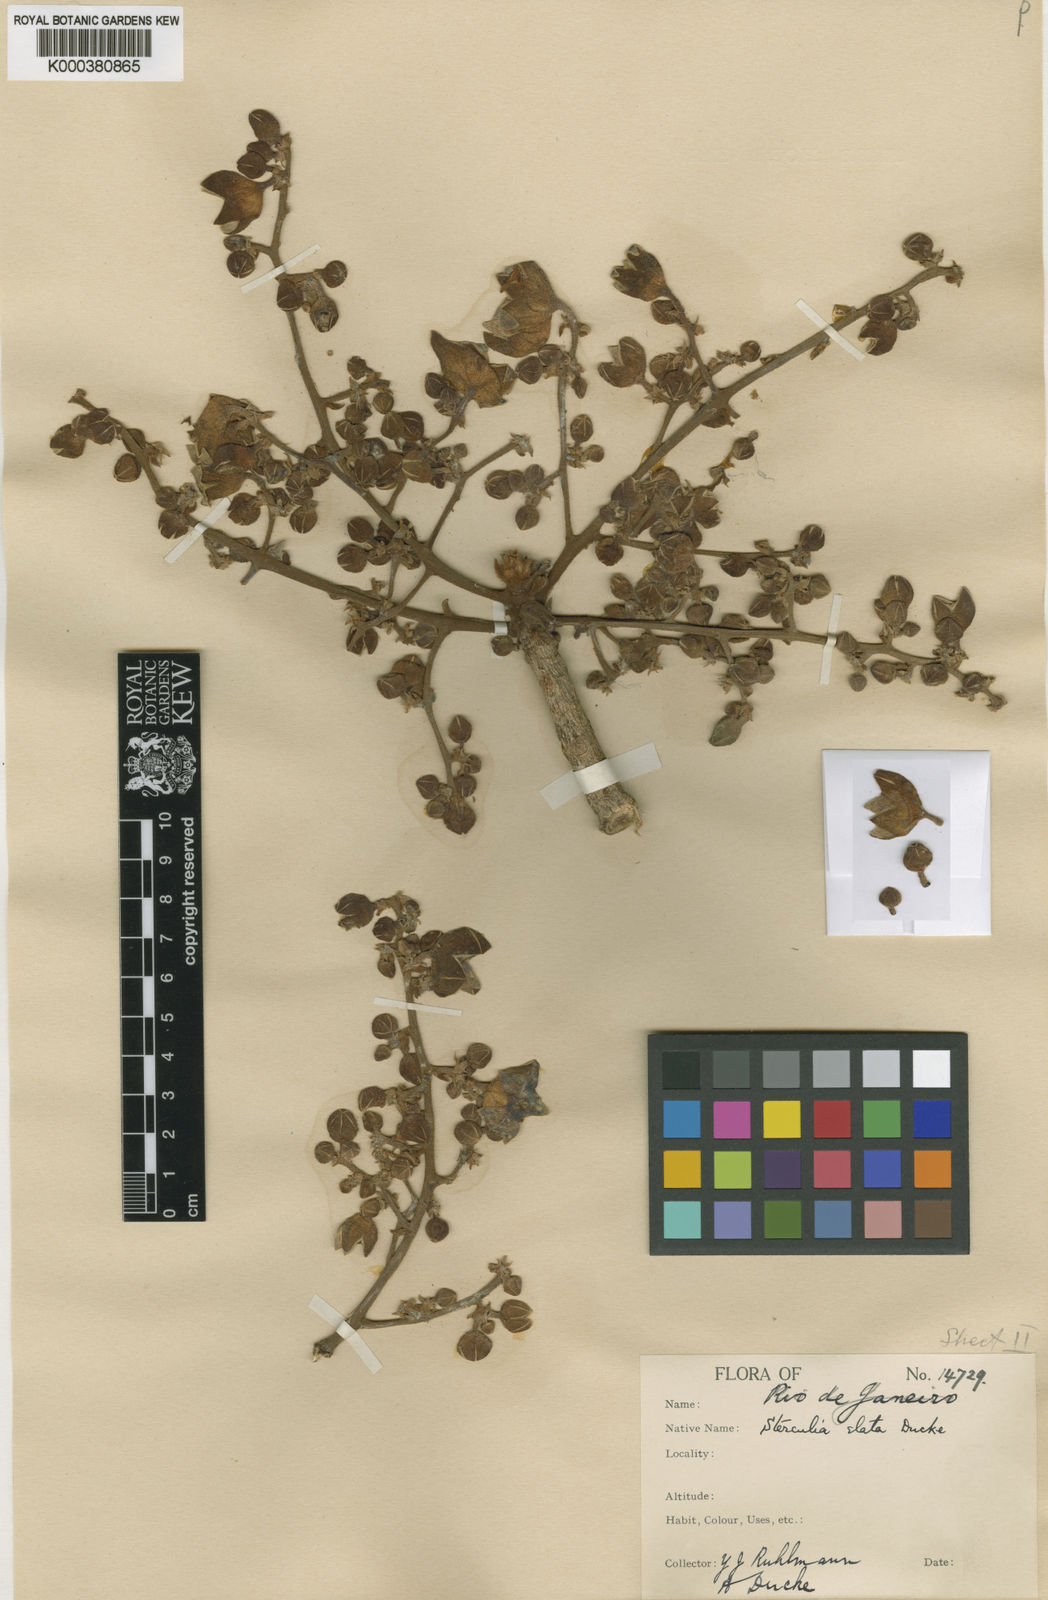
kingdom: Plantae
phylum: Tracheophyta
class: Magnoliopsida
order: Malvales
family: Malvaceae
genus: Sterculia
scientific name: Sterculia apetala
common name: Panama tree
